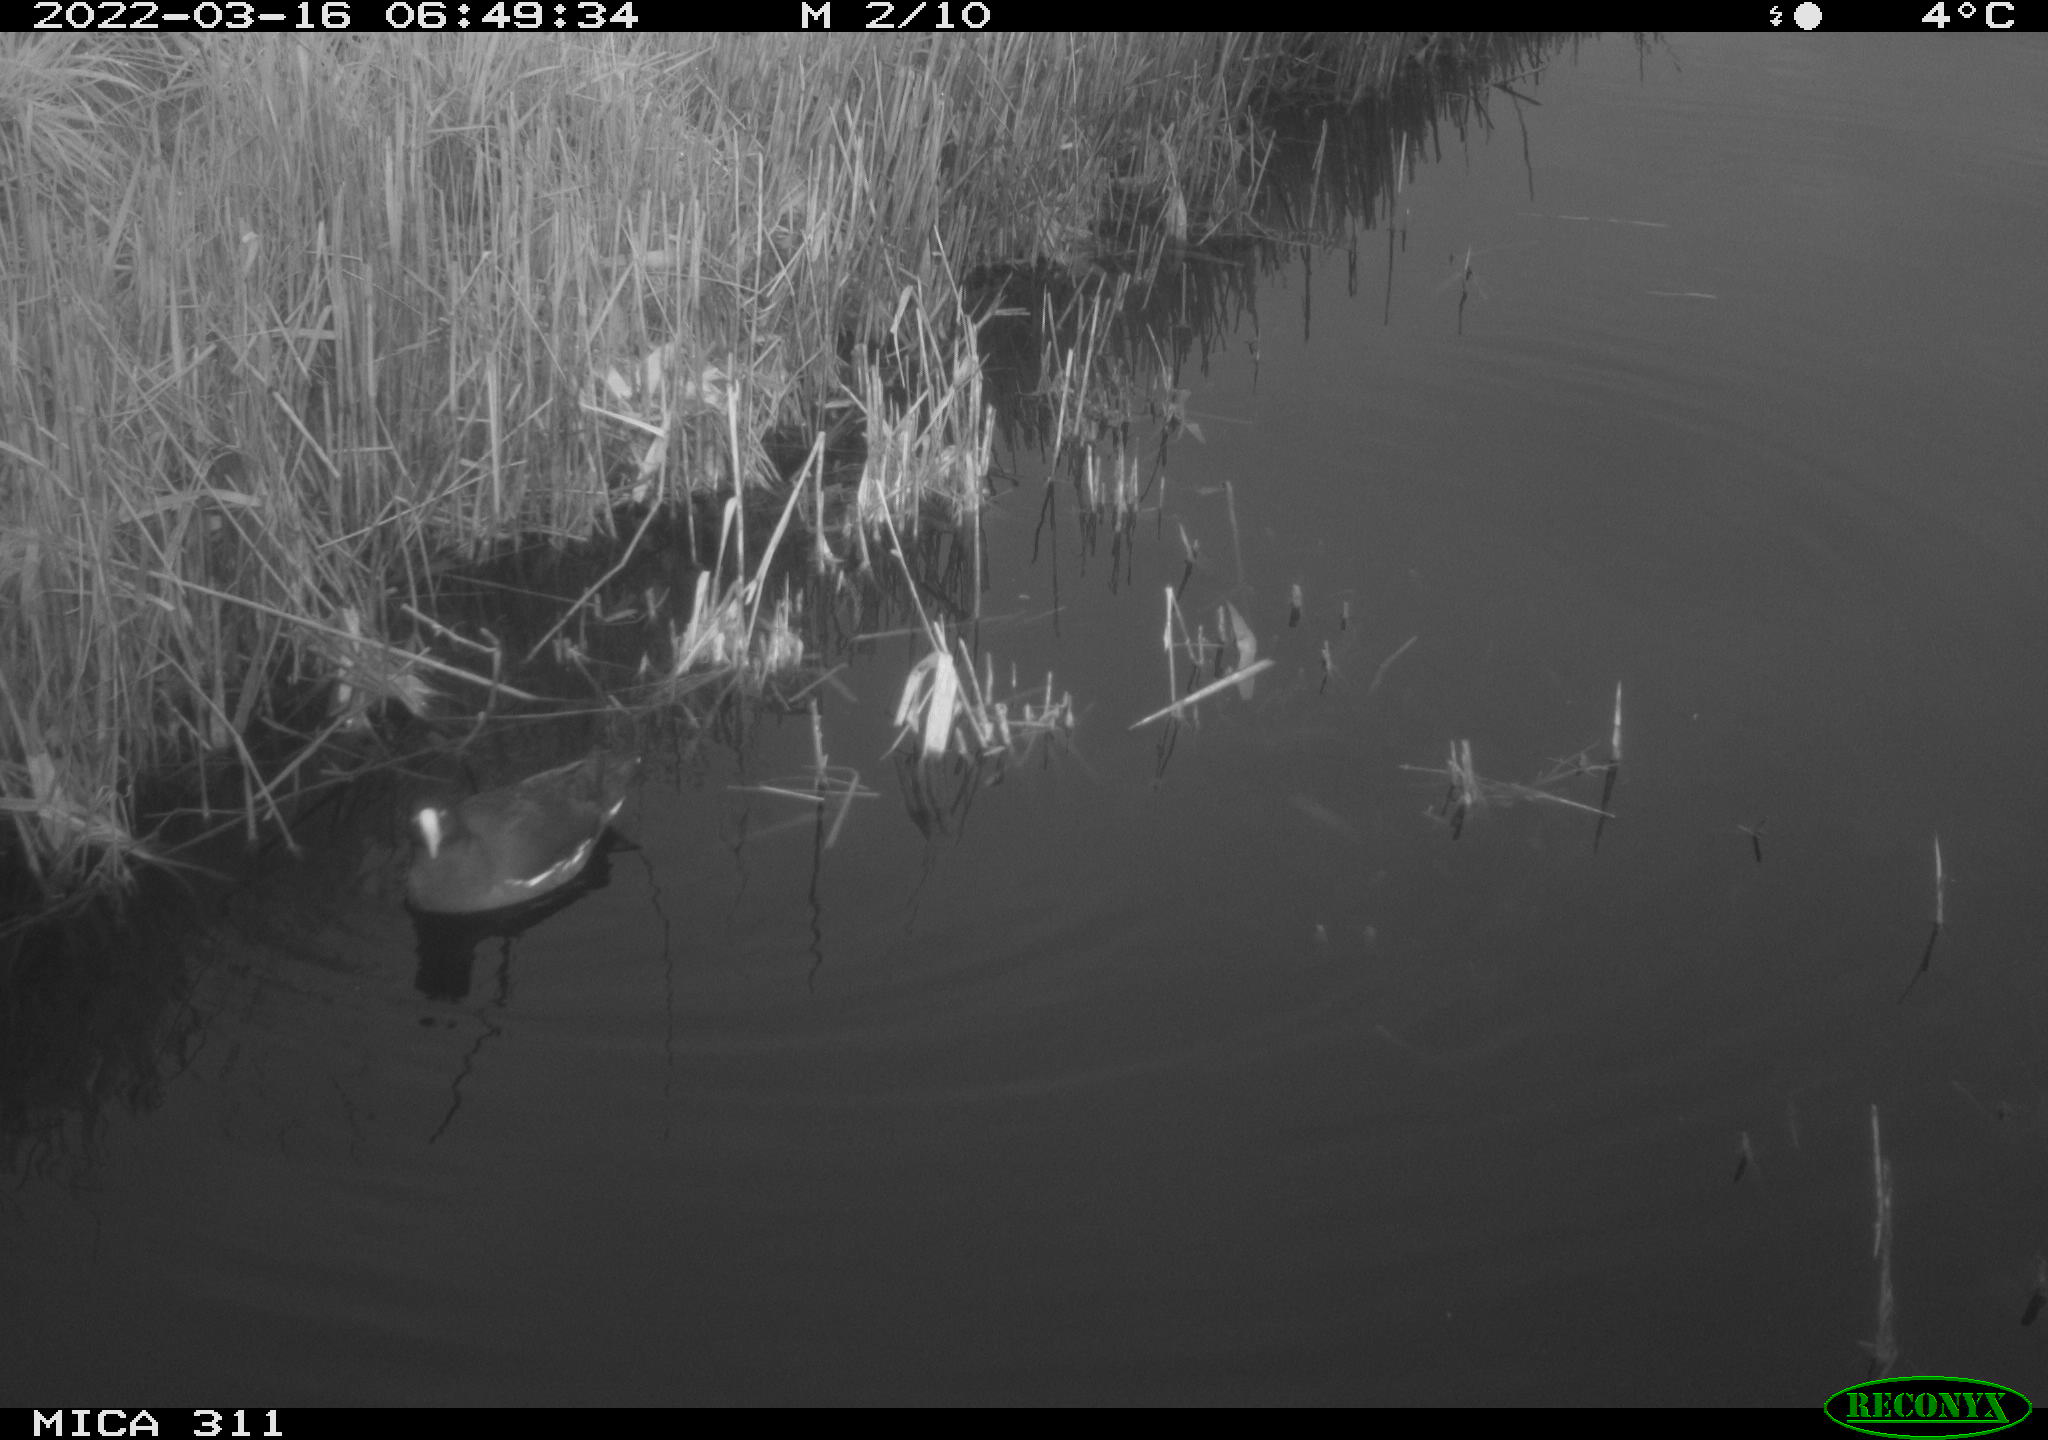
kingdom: Animalia
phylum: Chordata
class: Aves
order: Gruiformes
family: Rallidae
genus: Gallinula
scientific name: Gallinula chloropus
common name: Common moorhen
